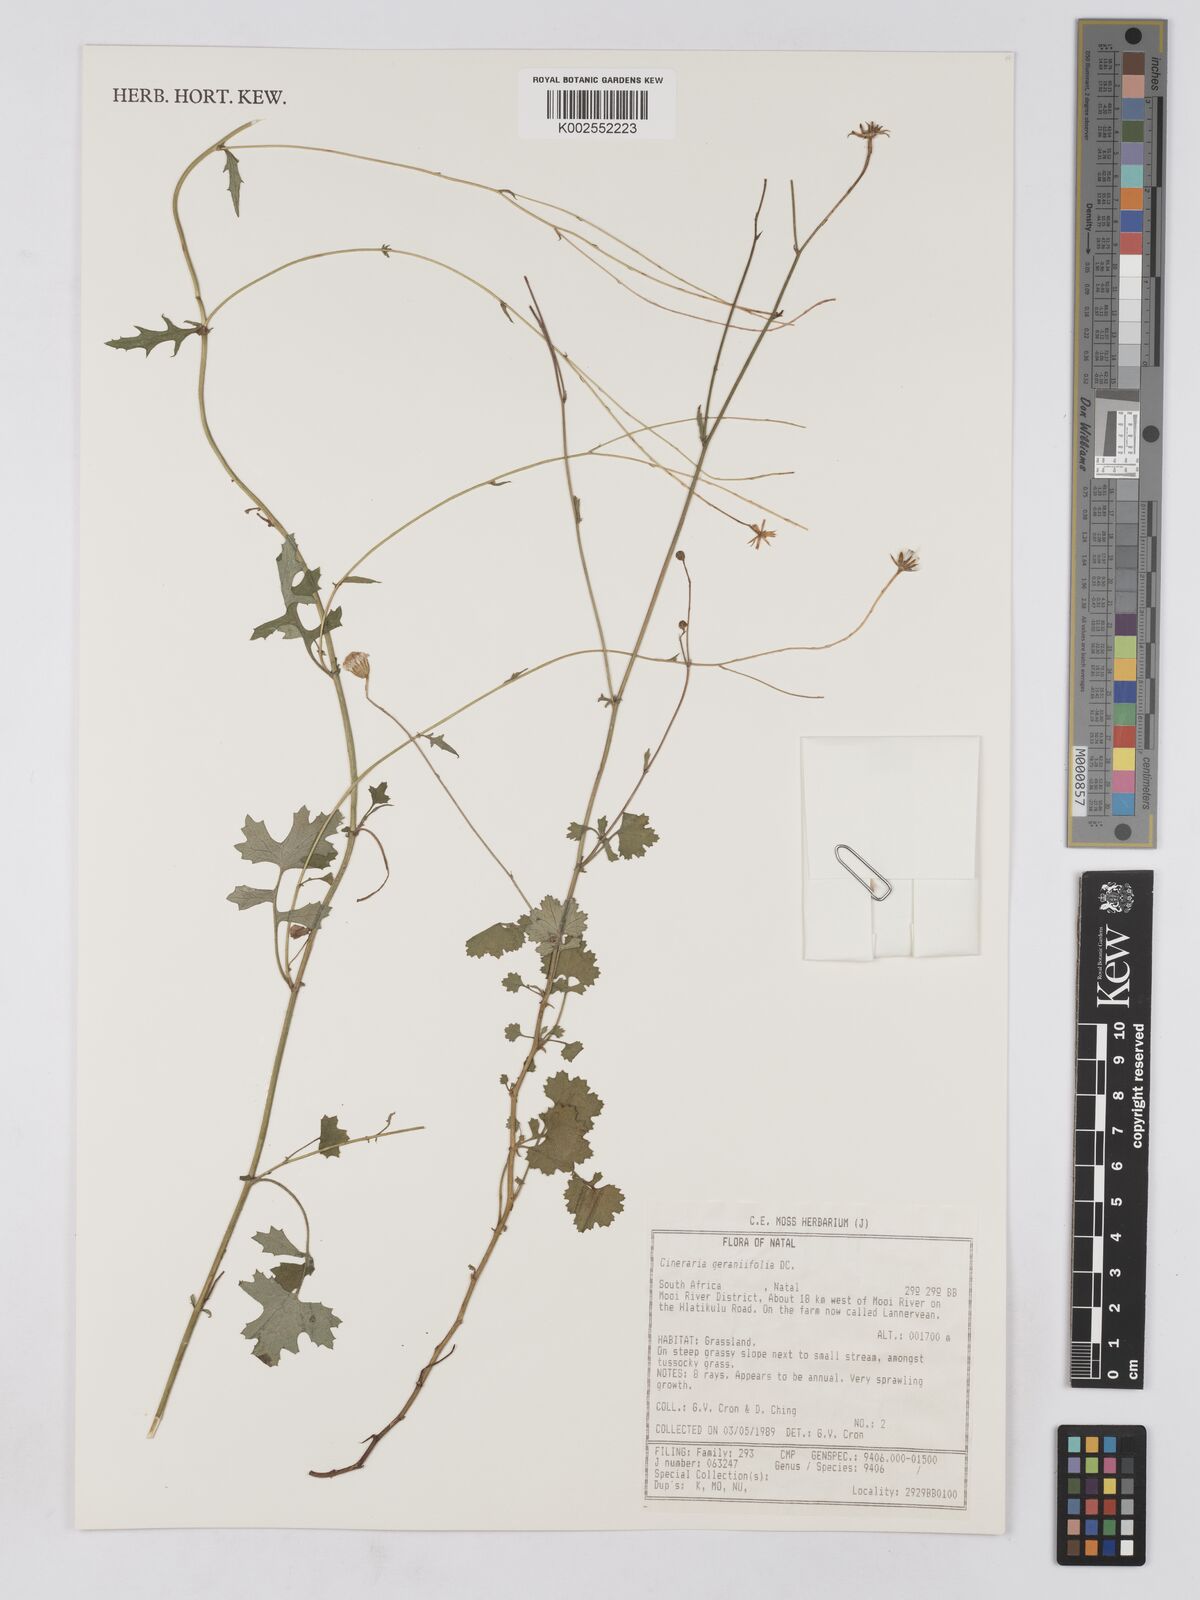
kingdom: Plantae
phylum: Tracheophyta
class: Magnoliopsida
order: Asterales
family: Asteraceae
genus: Cineraria
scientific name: Cineraria geraniifolia
